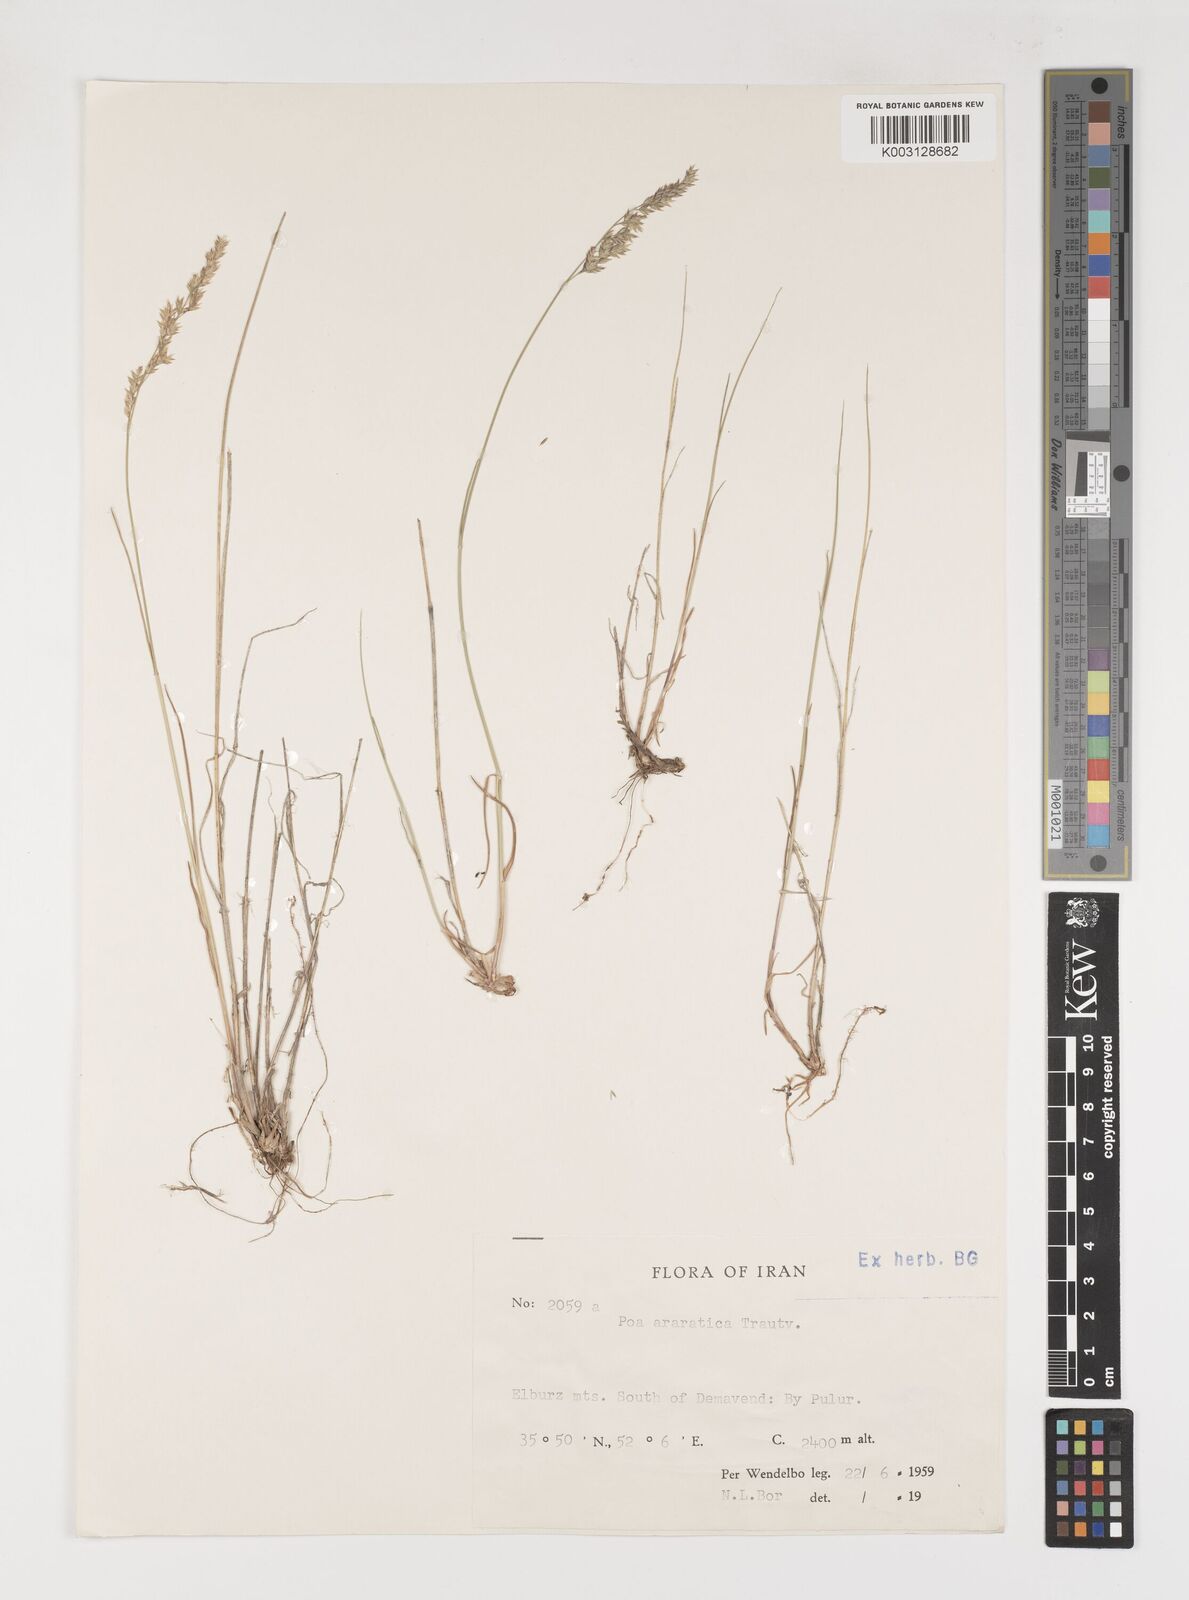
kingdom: Plantae
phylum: Tracheophyta
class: Liliopsida
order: Poales
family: Poaceae
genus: Poa
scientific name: Poa araratica
